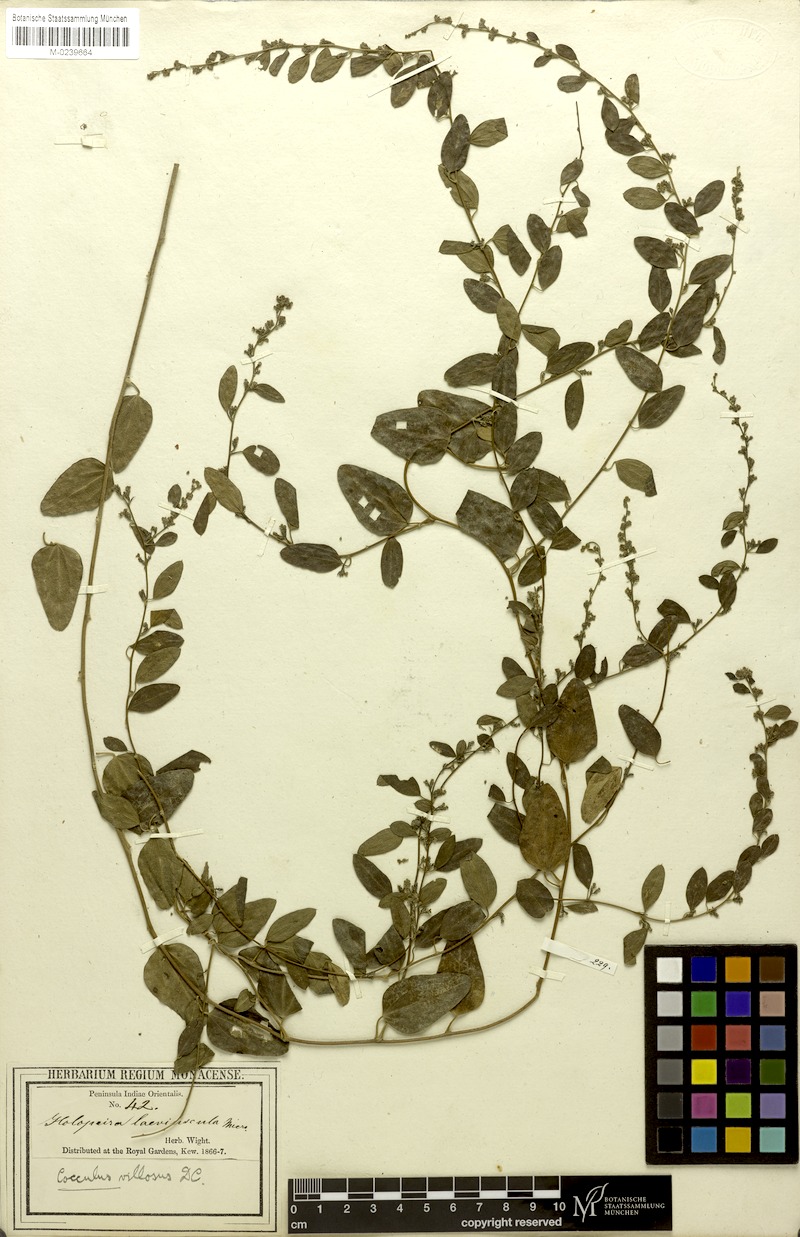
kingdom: Plantae
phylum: Tracheophyta
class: Magnoliopsida
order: Ranunculales
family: Menispermaceae
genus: Cocculus
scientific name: Cocculus hirsutus
